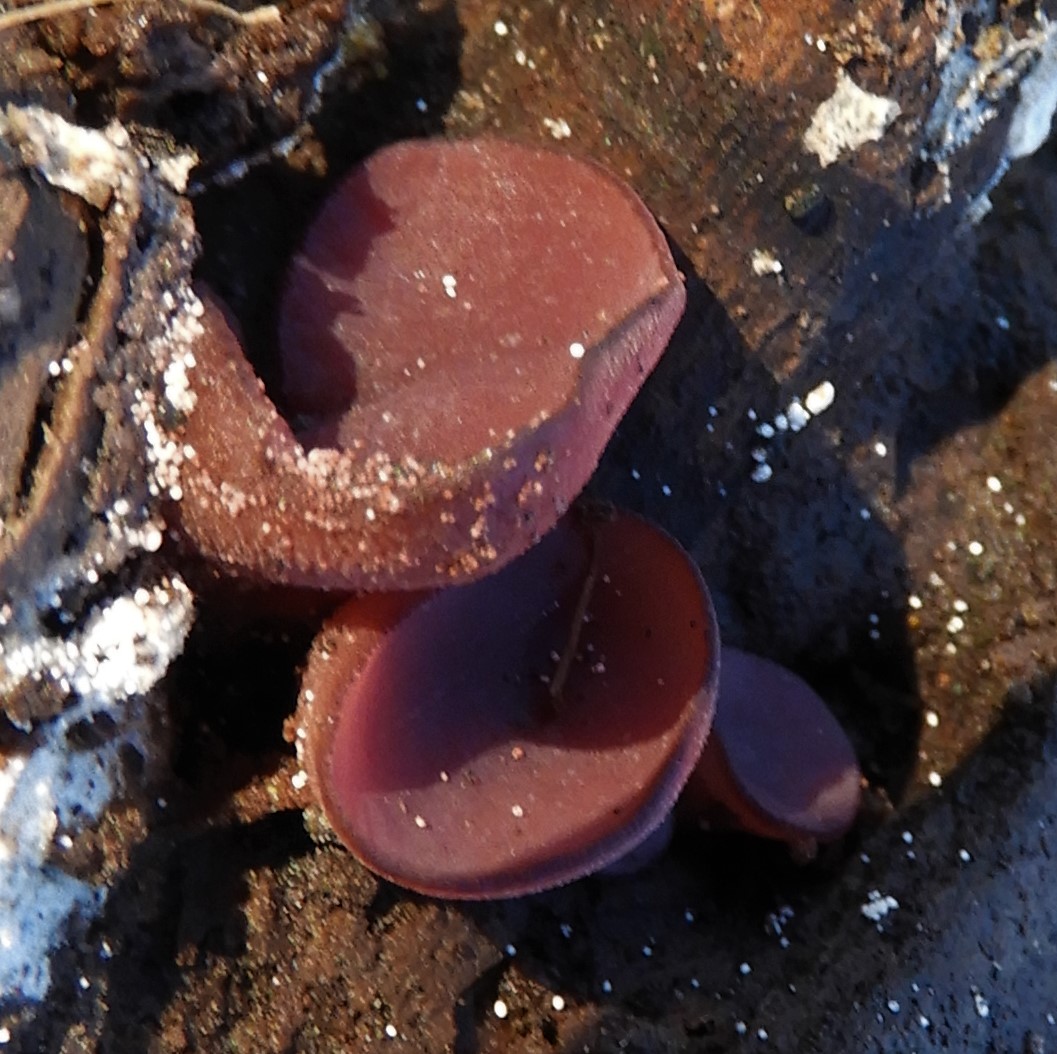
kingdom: Fungi
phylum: Ascomycota
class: Leotiomycetes
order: Helotiales
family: Gelatinodiscaceae
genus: Ascocoryne
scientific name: Ascocoryne cylichnium
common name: stor sejskive
